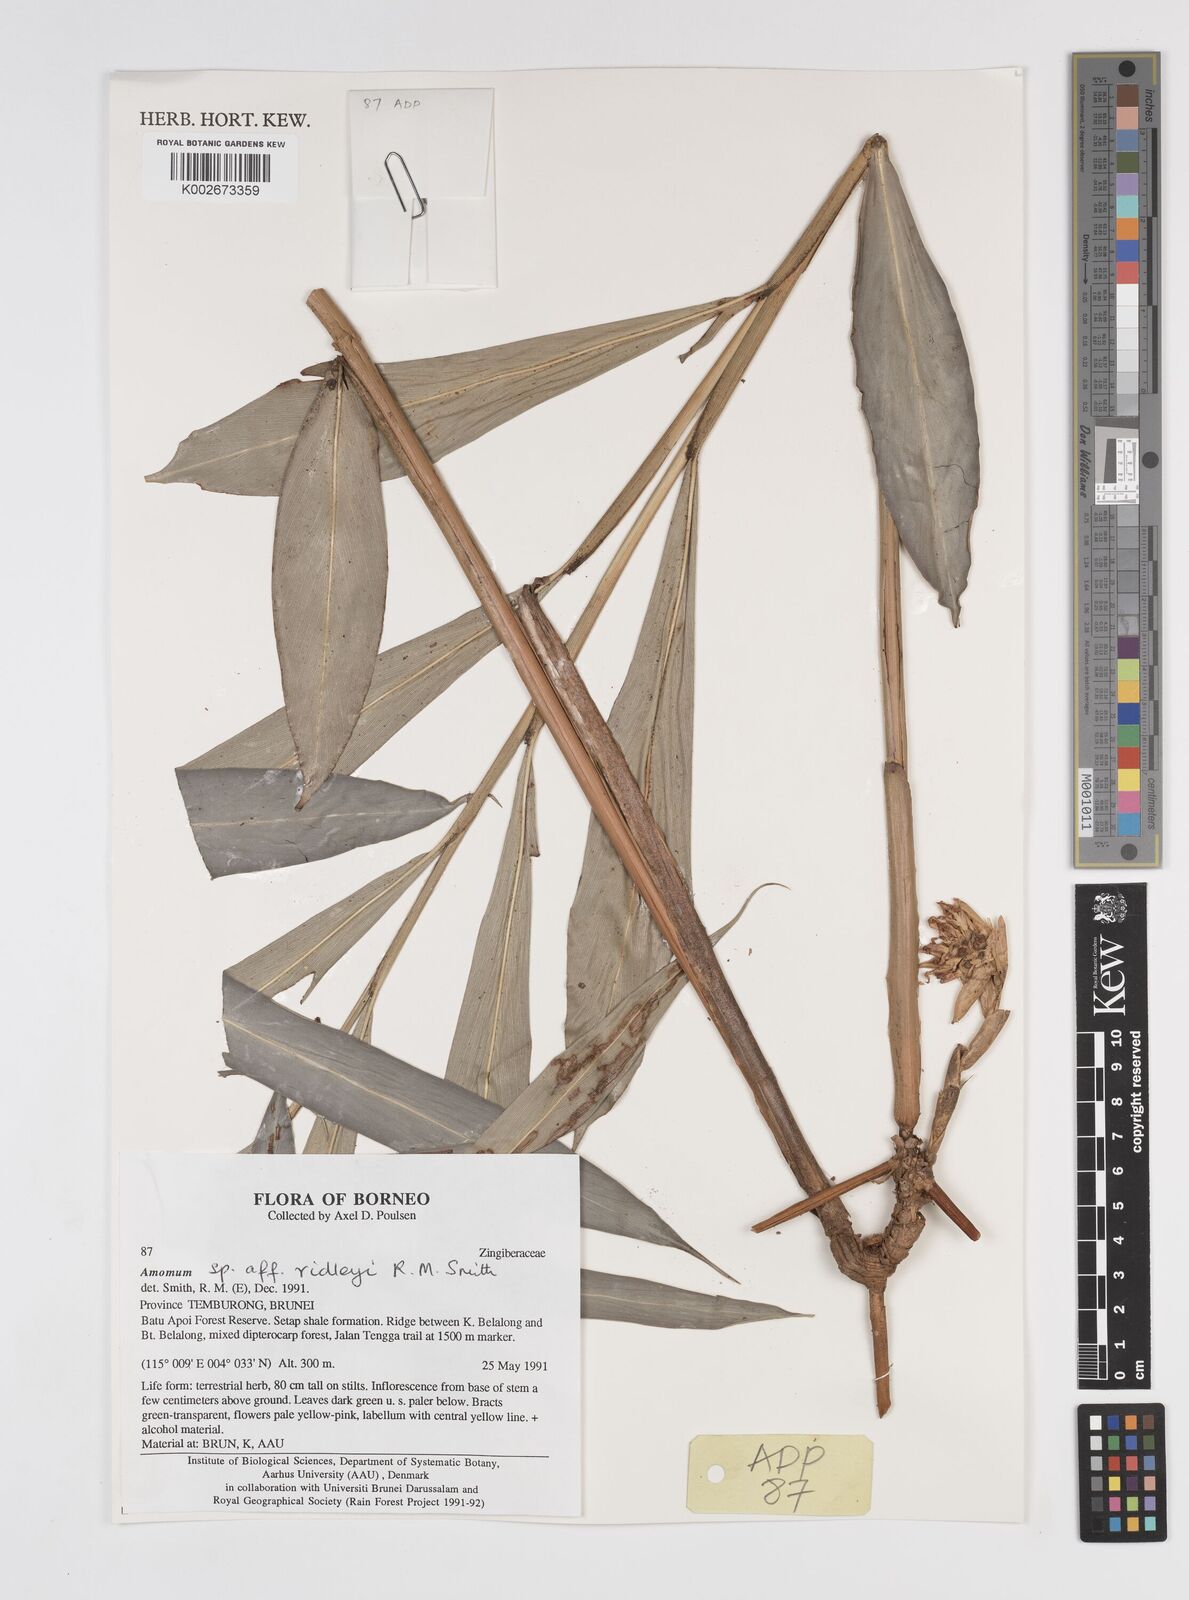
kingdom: Plantae
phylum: Tracheophyta
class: Liliopsida
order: Zingiberales
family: Zingiberaceae
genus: Amomum
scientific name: Amomum
